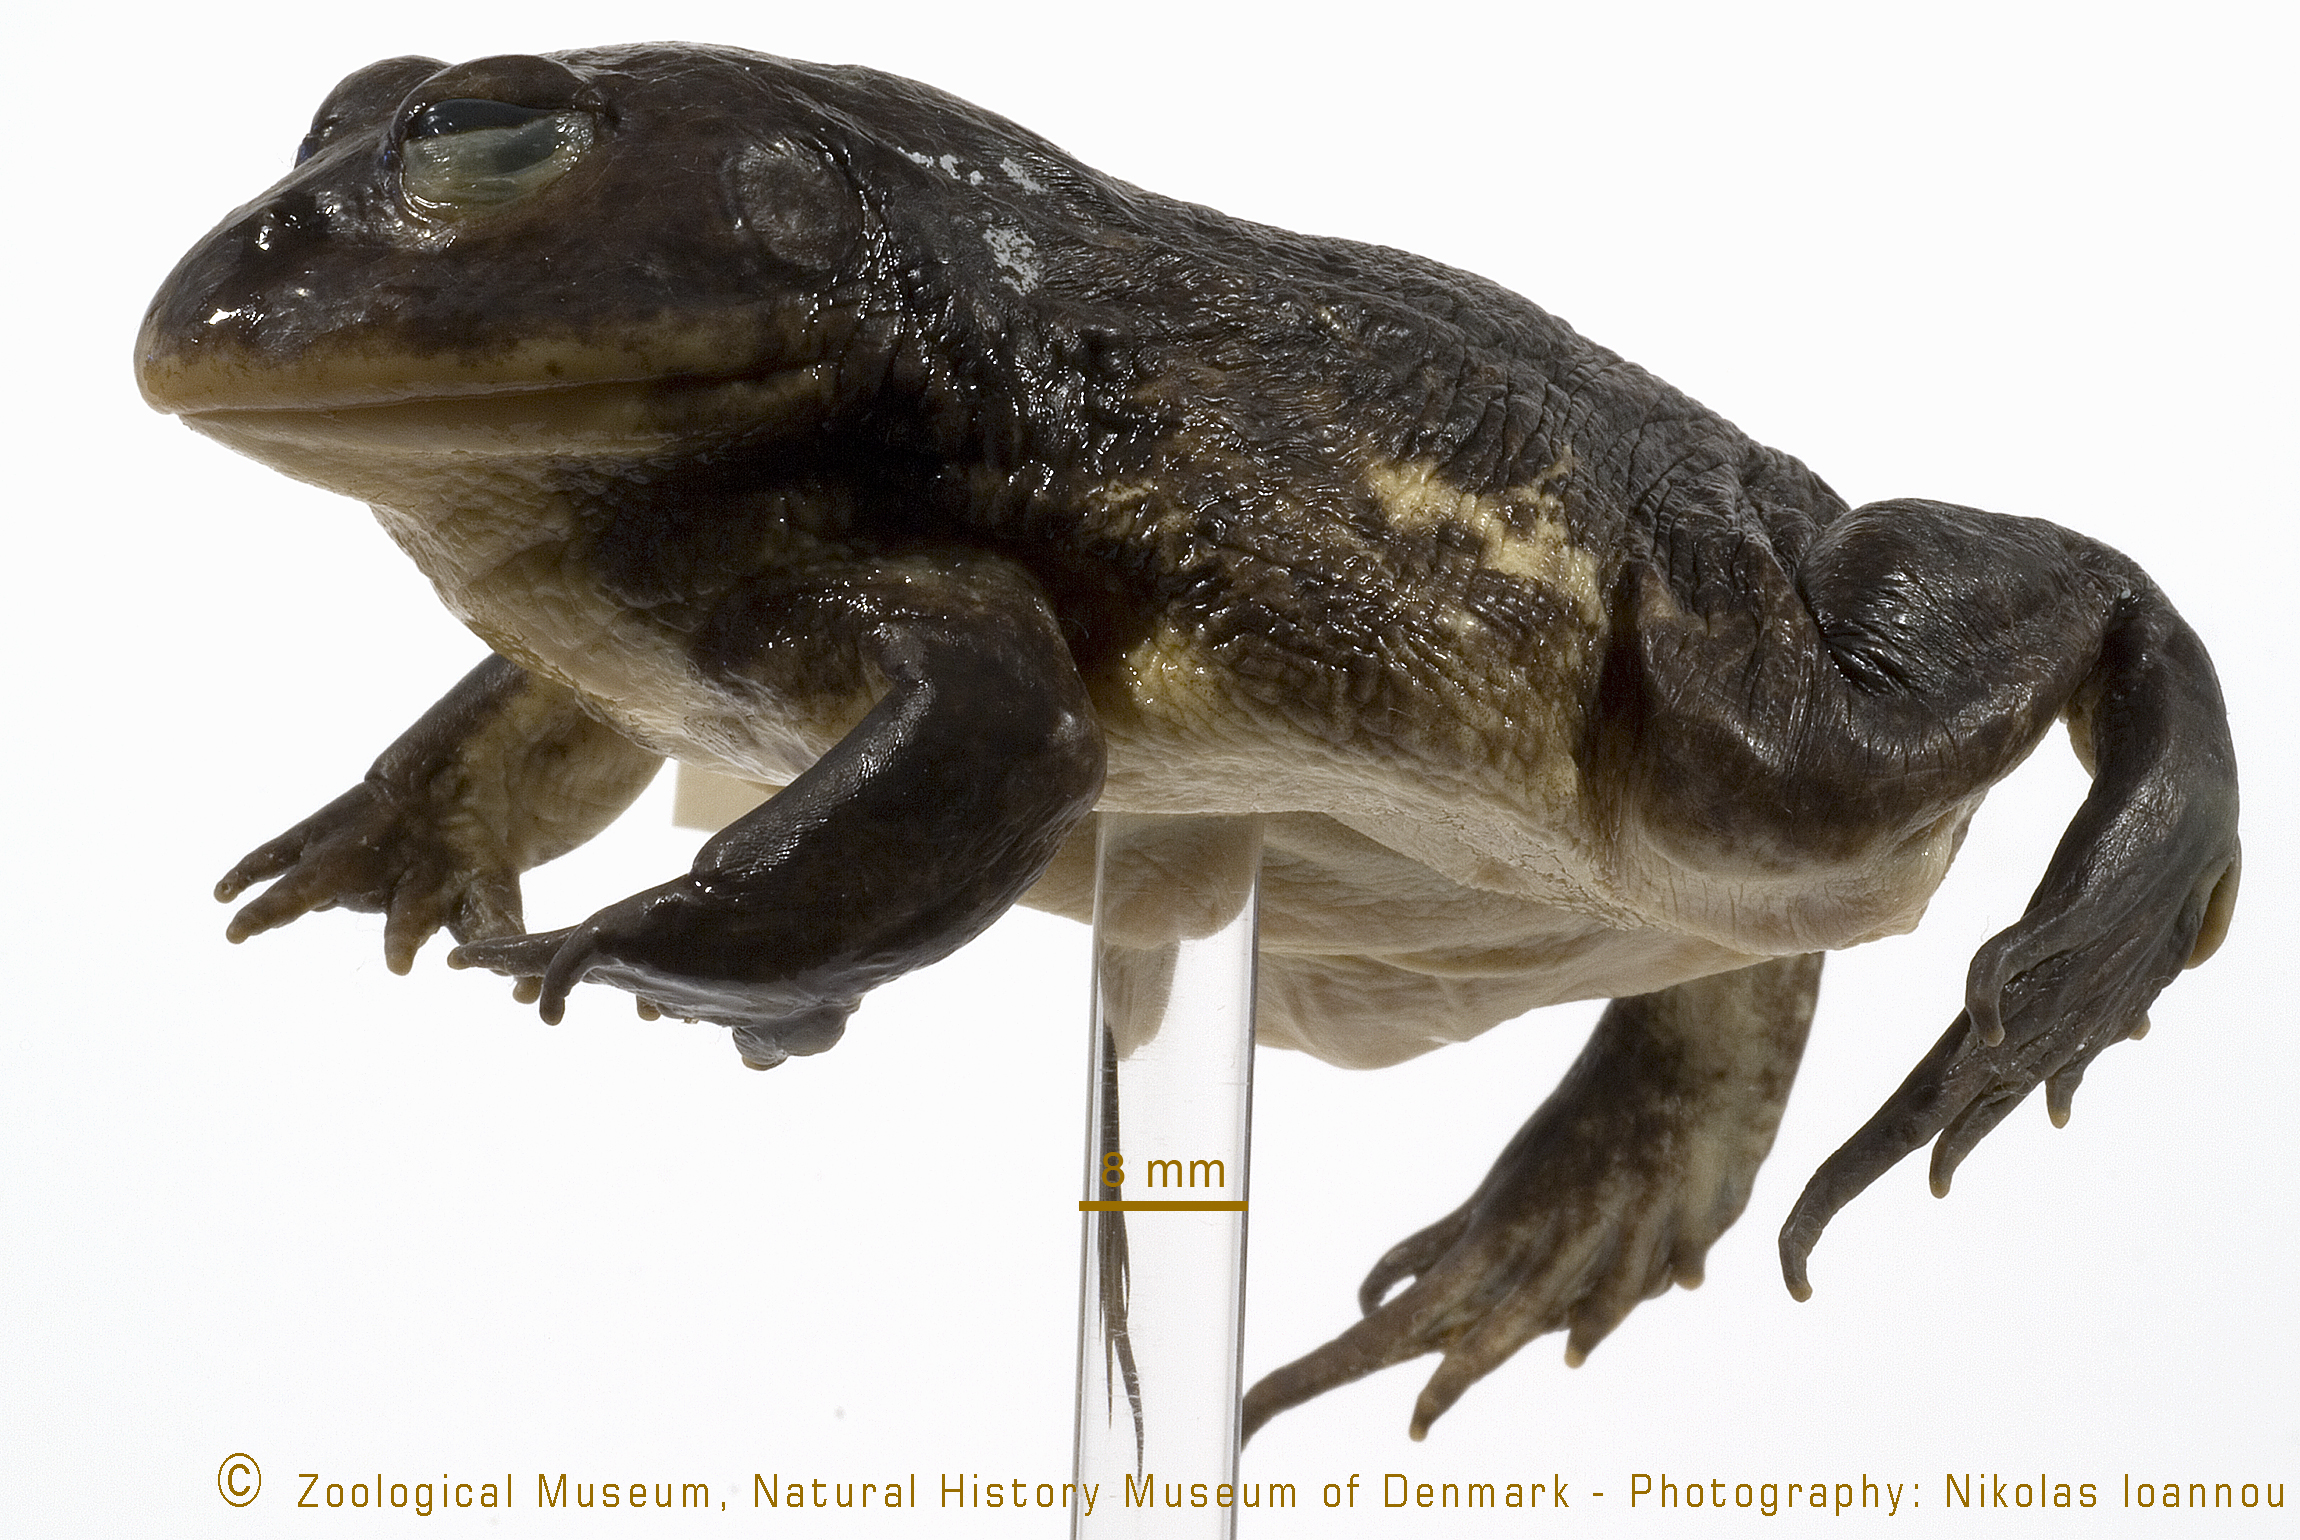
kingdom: Animalia
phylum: Chordata
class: Amphibia
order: Anura
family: Pyxicephalidae
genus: Pyxicephalus
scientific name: Pyxicephalus adspersus
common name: African bullfrog
